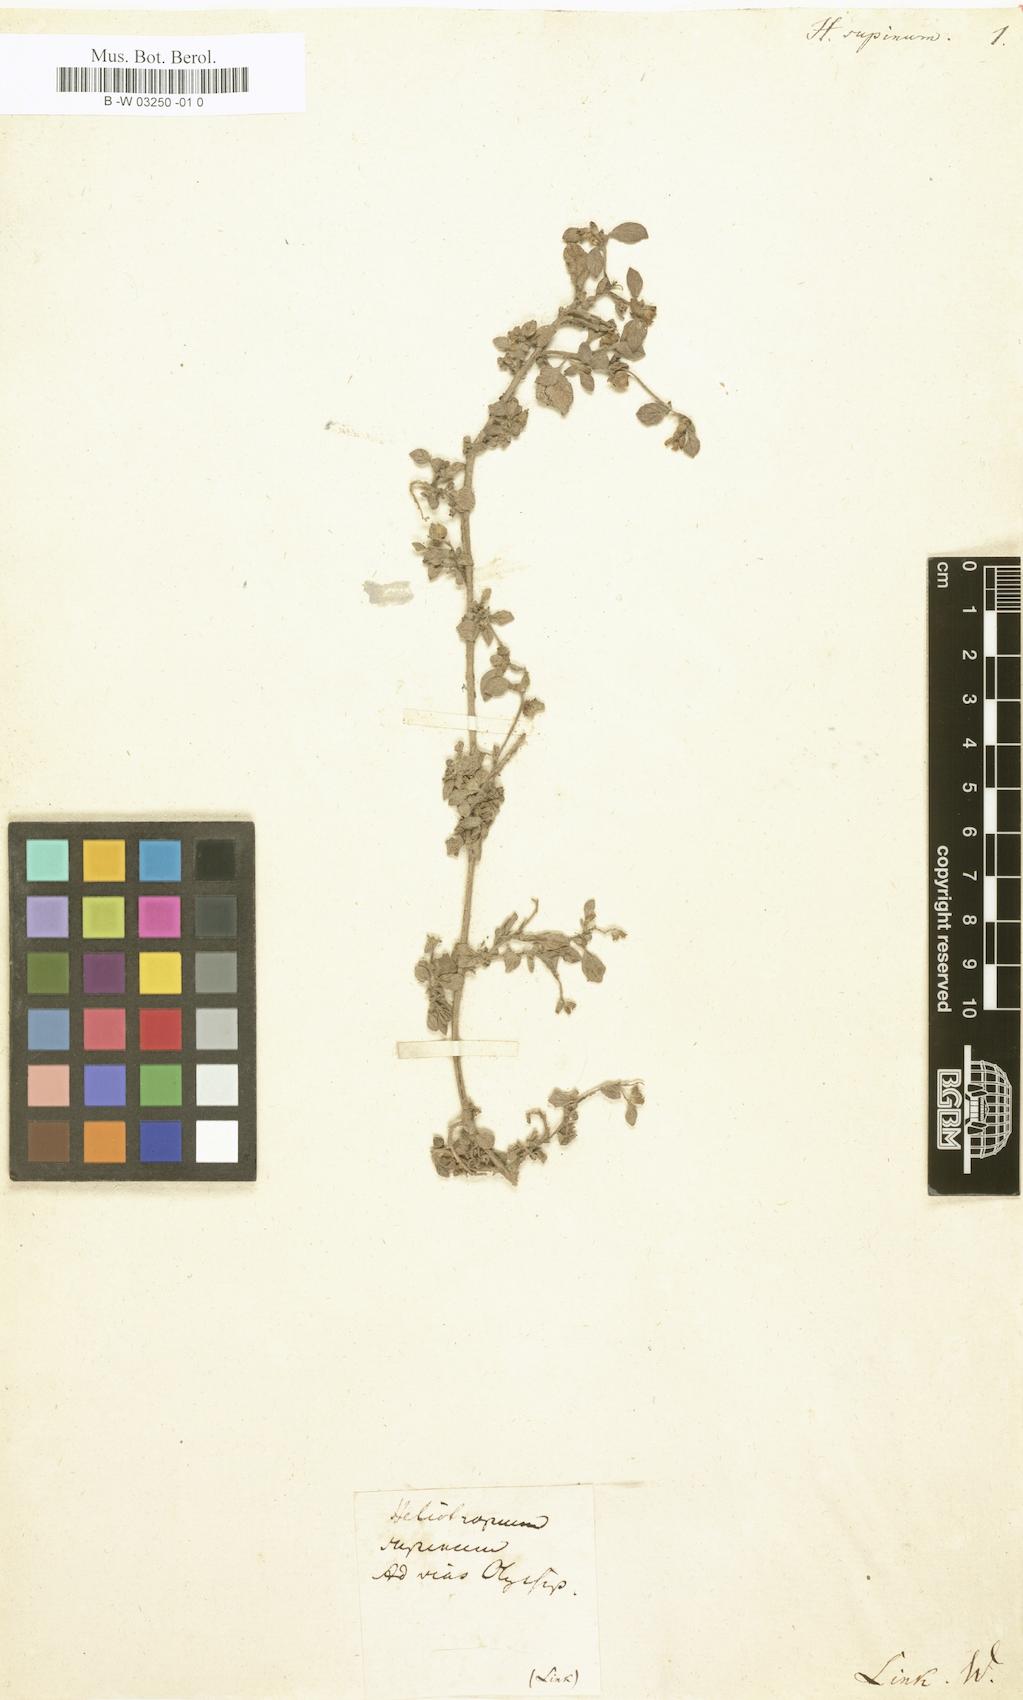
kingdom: Plantae
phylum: Tracheophyta
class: Magnoliopsida
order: Boraginales
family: Heliotropiaceae
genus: Heliotropium
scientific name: Heliotropium supinum
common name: Dwarf heliotrope
